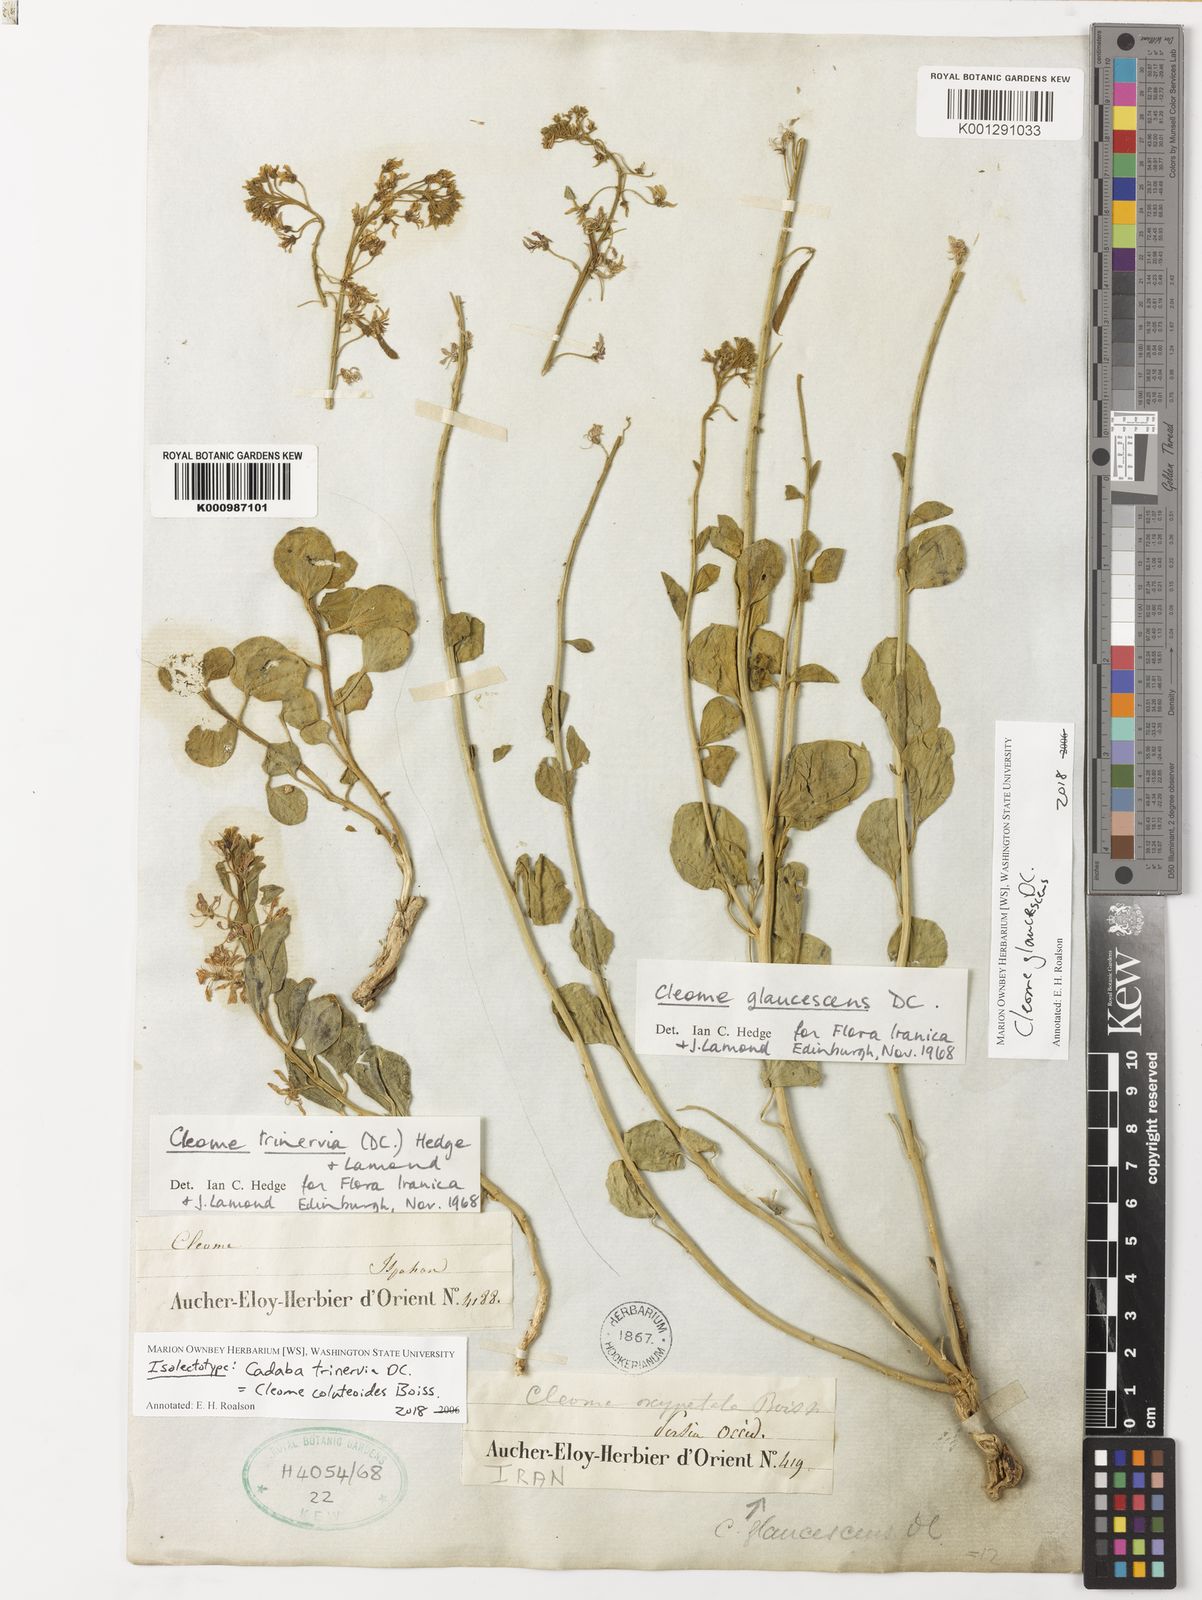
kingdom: Plantae
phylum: Tracheophyta
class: Magnoliopsida
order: Brassicales
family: Cleomaceae
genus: Cleome
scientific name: Cleome coluteoides
